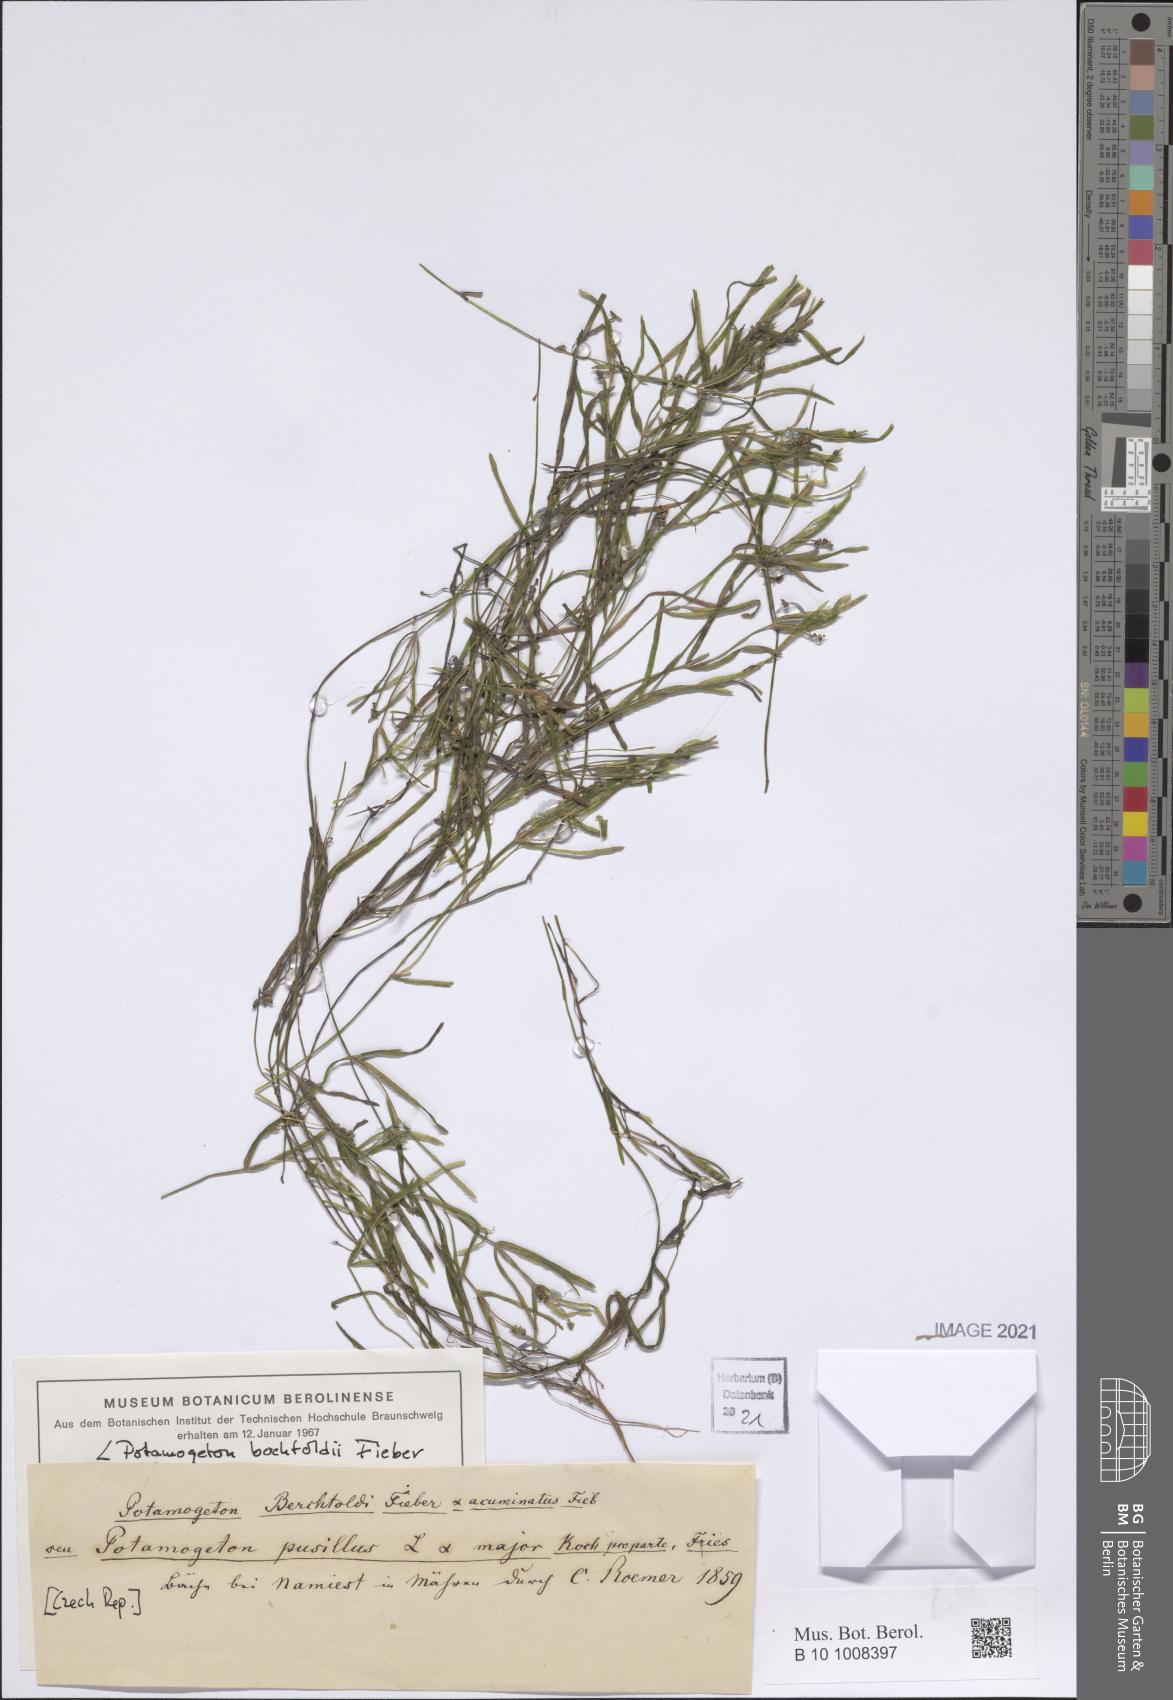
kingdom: Plantae
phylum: Tracheophyta
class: Liliopsida
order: Alismatales
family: Potamogetonaceae
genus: Potamogeton
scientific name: Potamogeton berchtoldii
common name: Small pondweed
